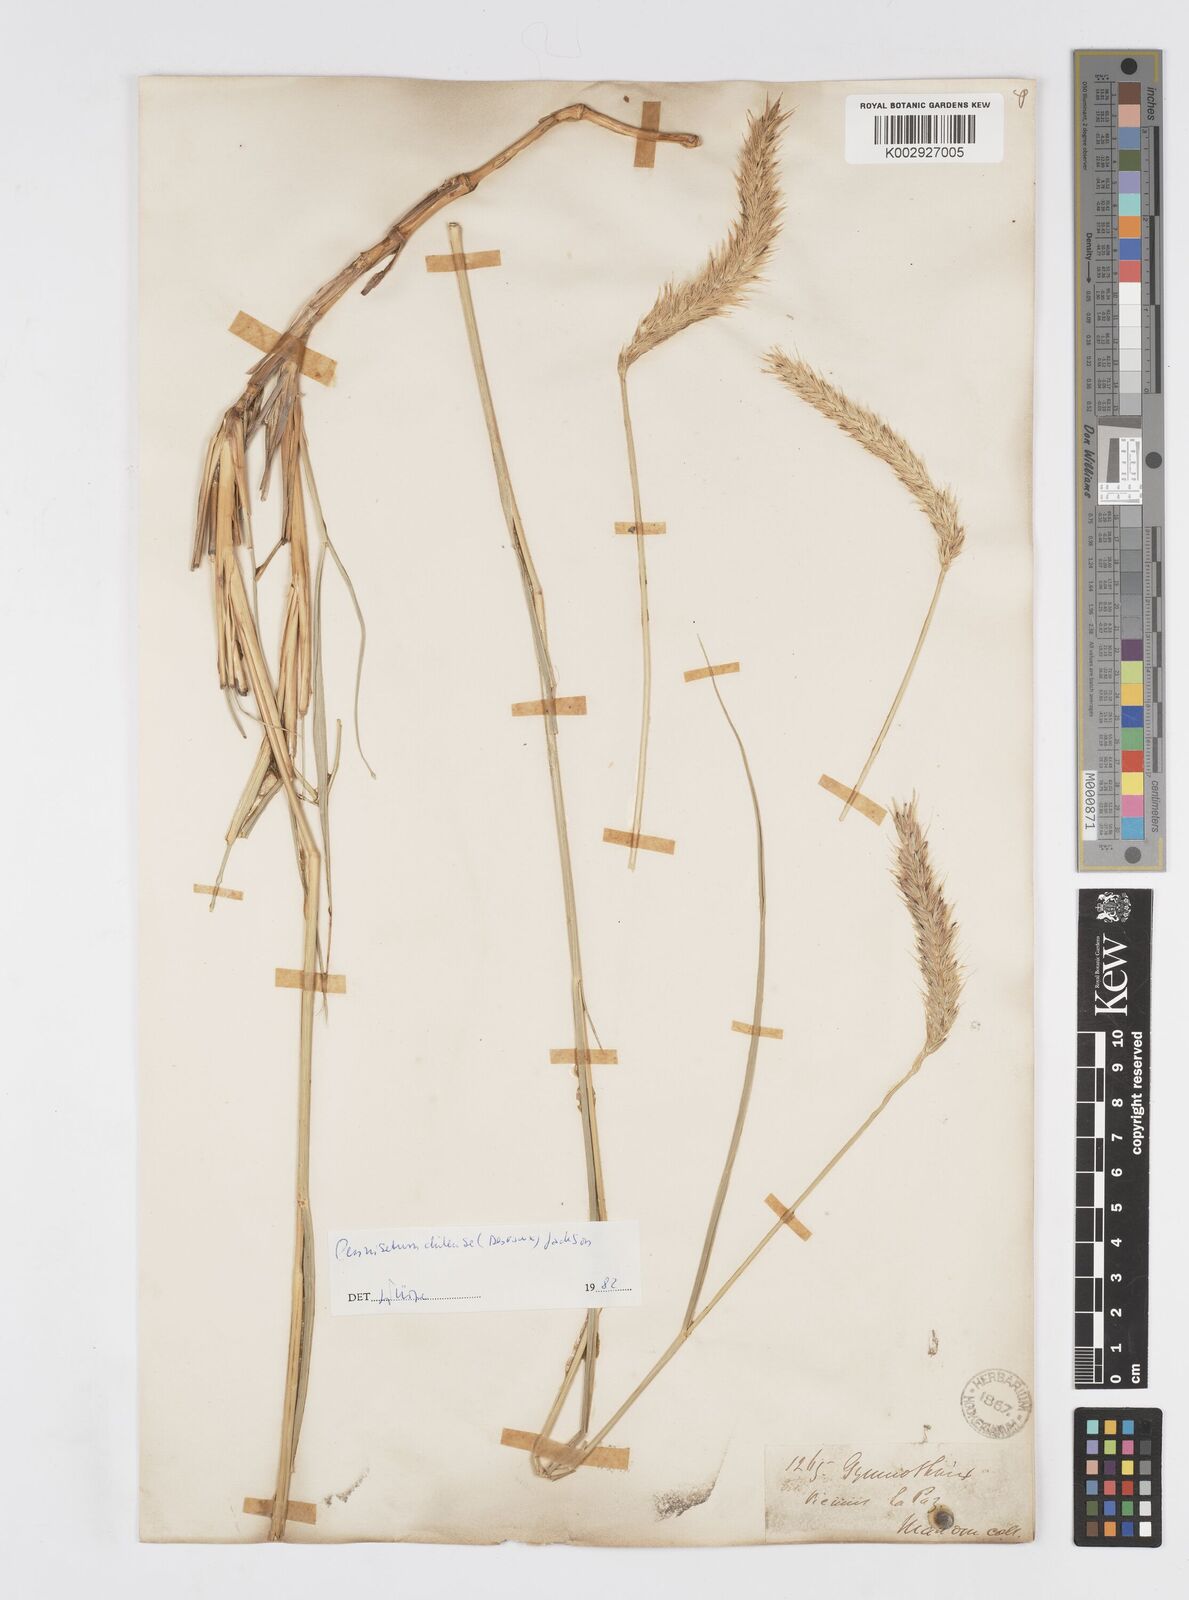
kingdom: Plantae
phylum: Tracheophyta
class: Liliopsida
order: Poales
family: Poaceae
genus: Cenchrus
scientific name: Cenchrus chilensis
